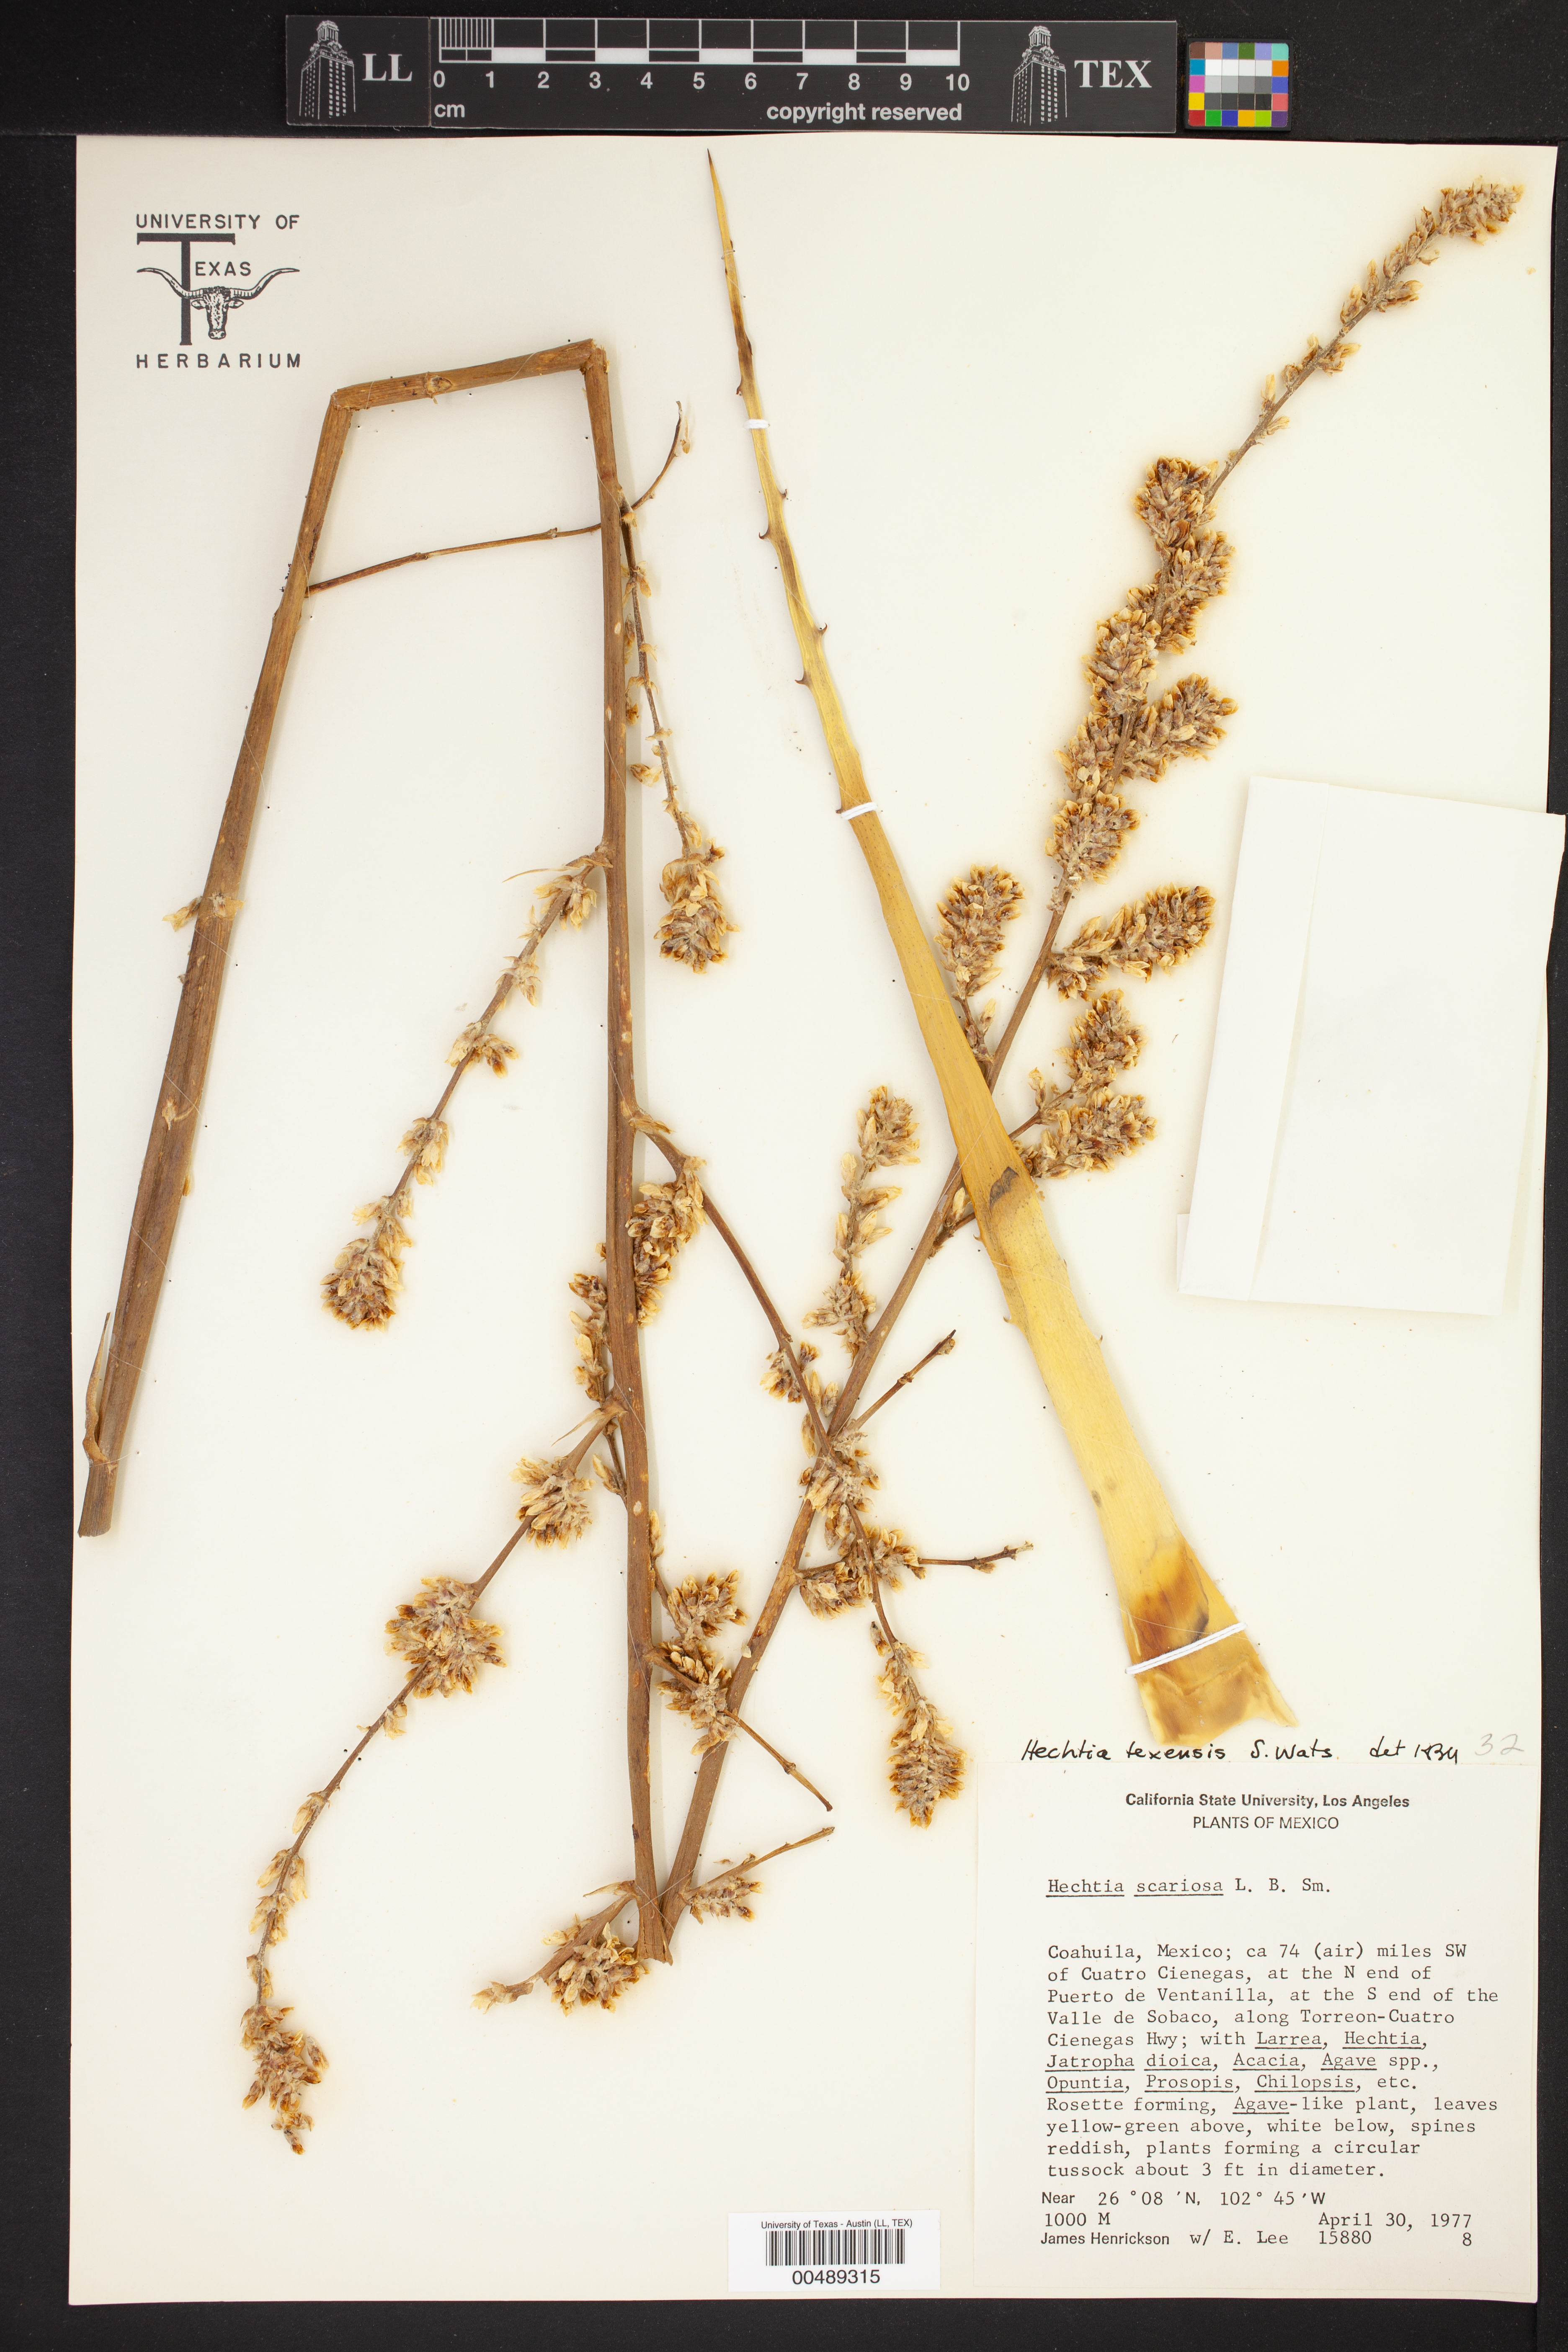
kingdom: Plantae
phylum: Tracheophyta
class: Liliopsida
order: Poales
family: Bromeliaceae
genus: Hechtia
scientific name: Hechtia texensis
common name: False agave
